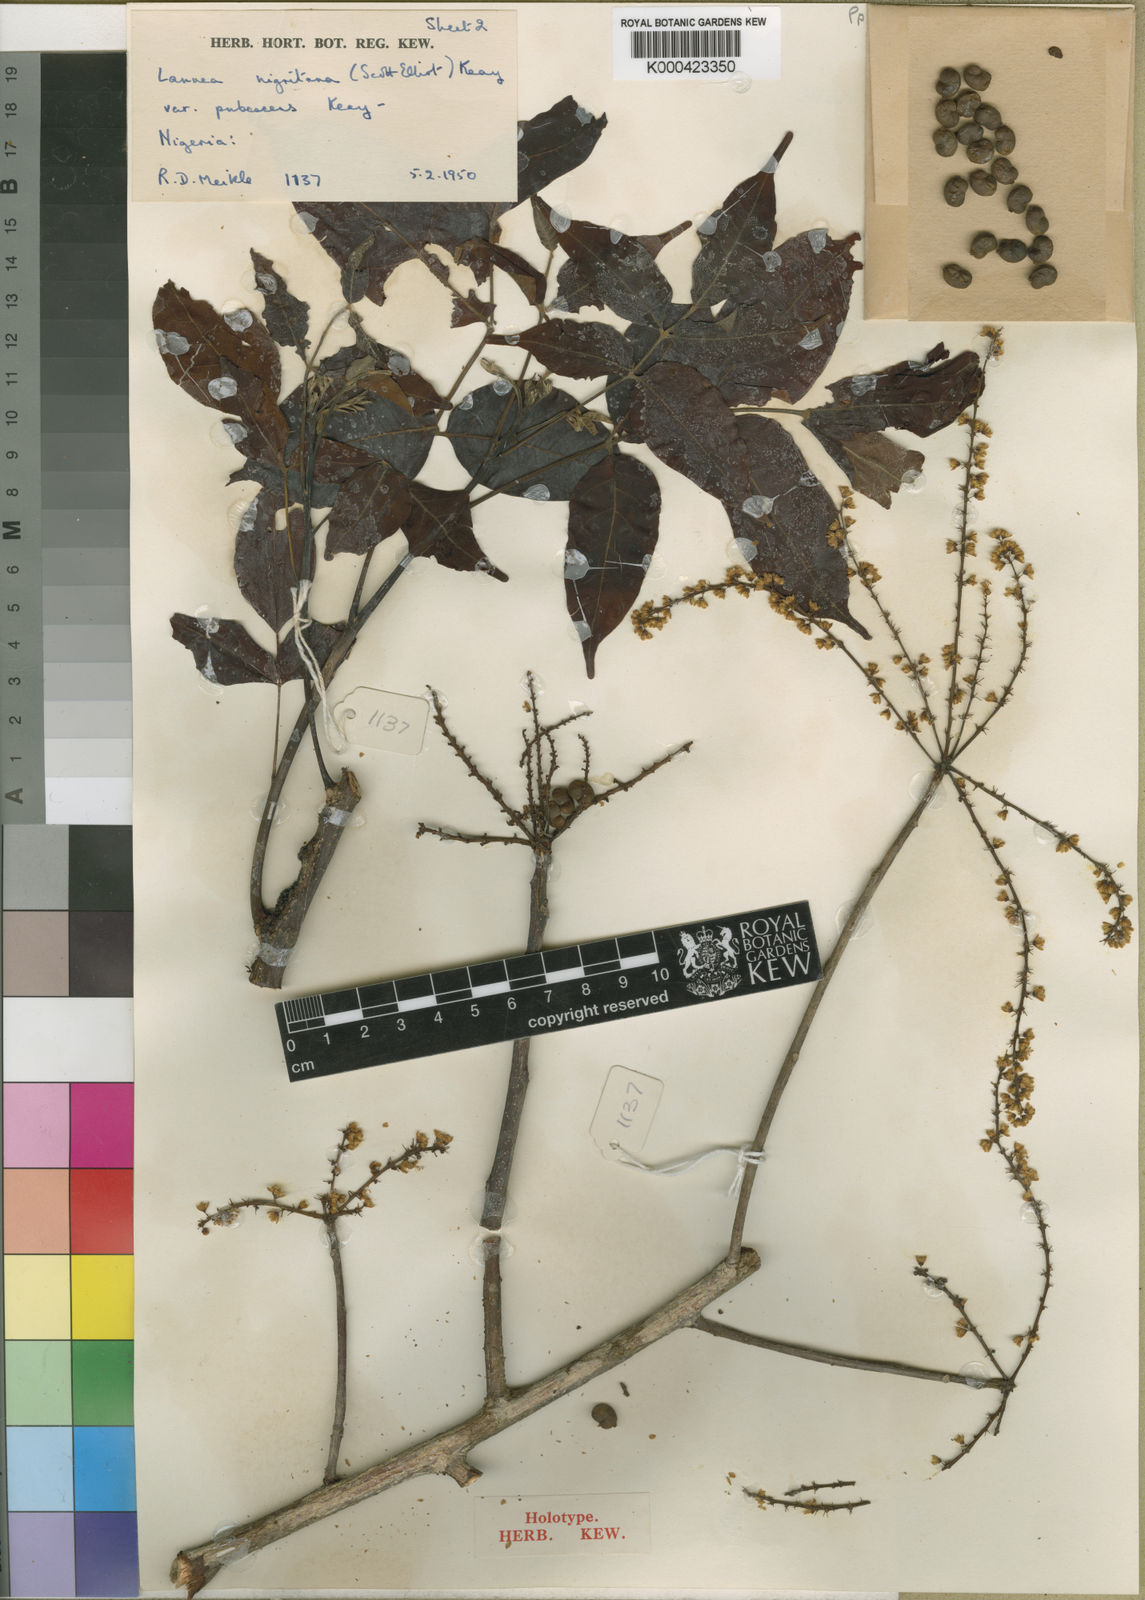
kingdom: Plantae
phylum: Tracheophyta
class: Magnoliopsida
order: Sapindales
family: Anacardiaceae
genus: Lannea
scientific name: Lannea nigritana
